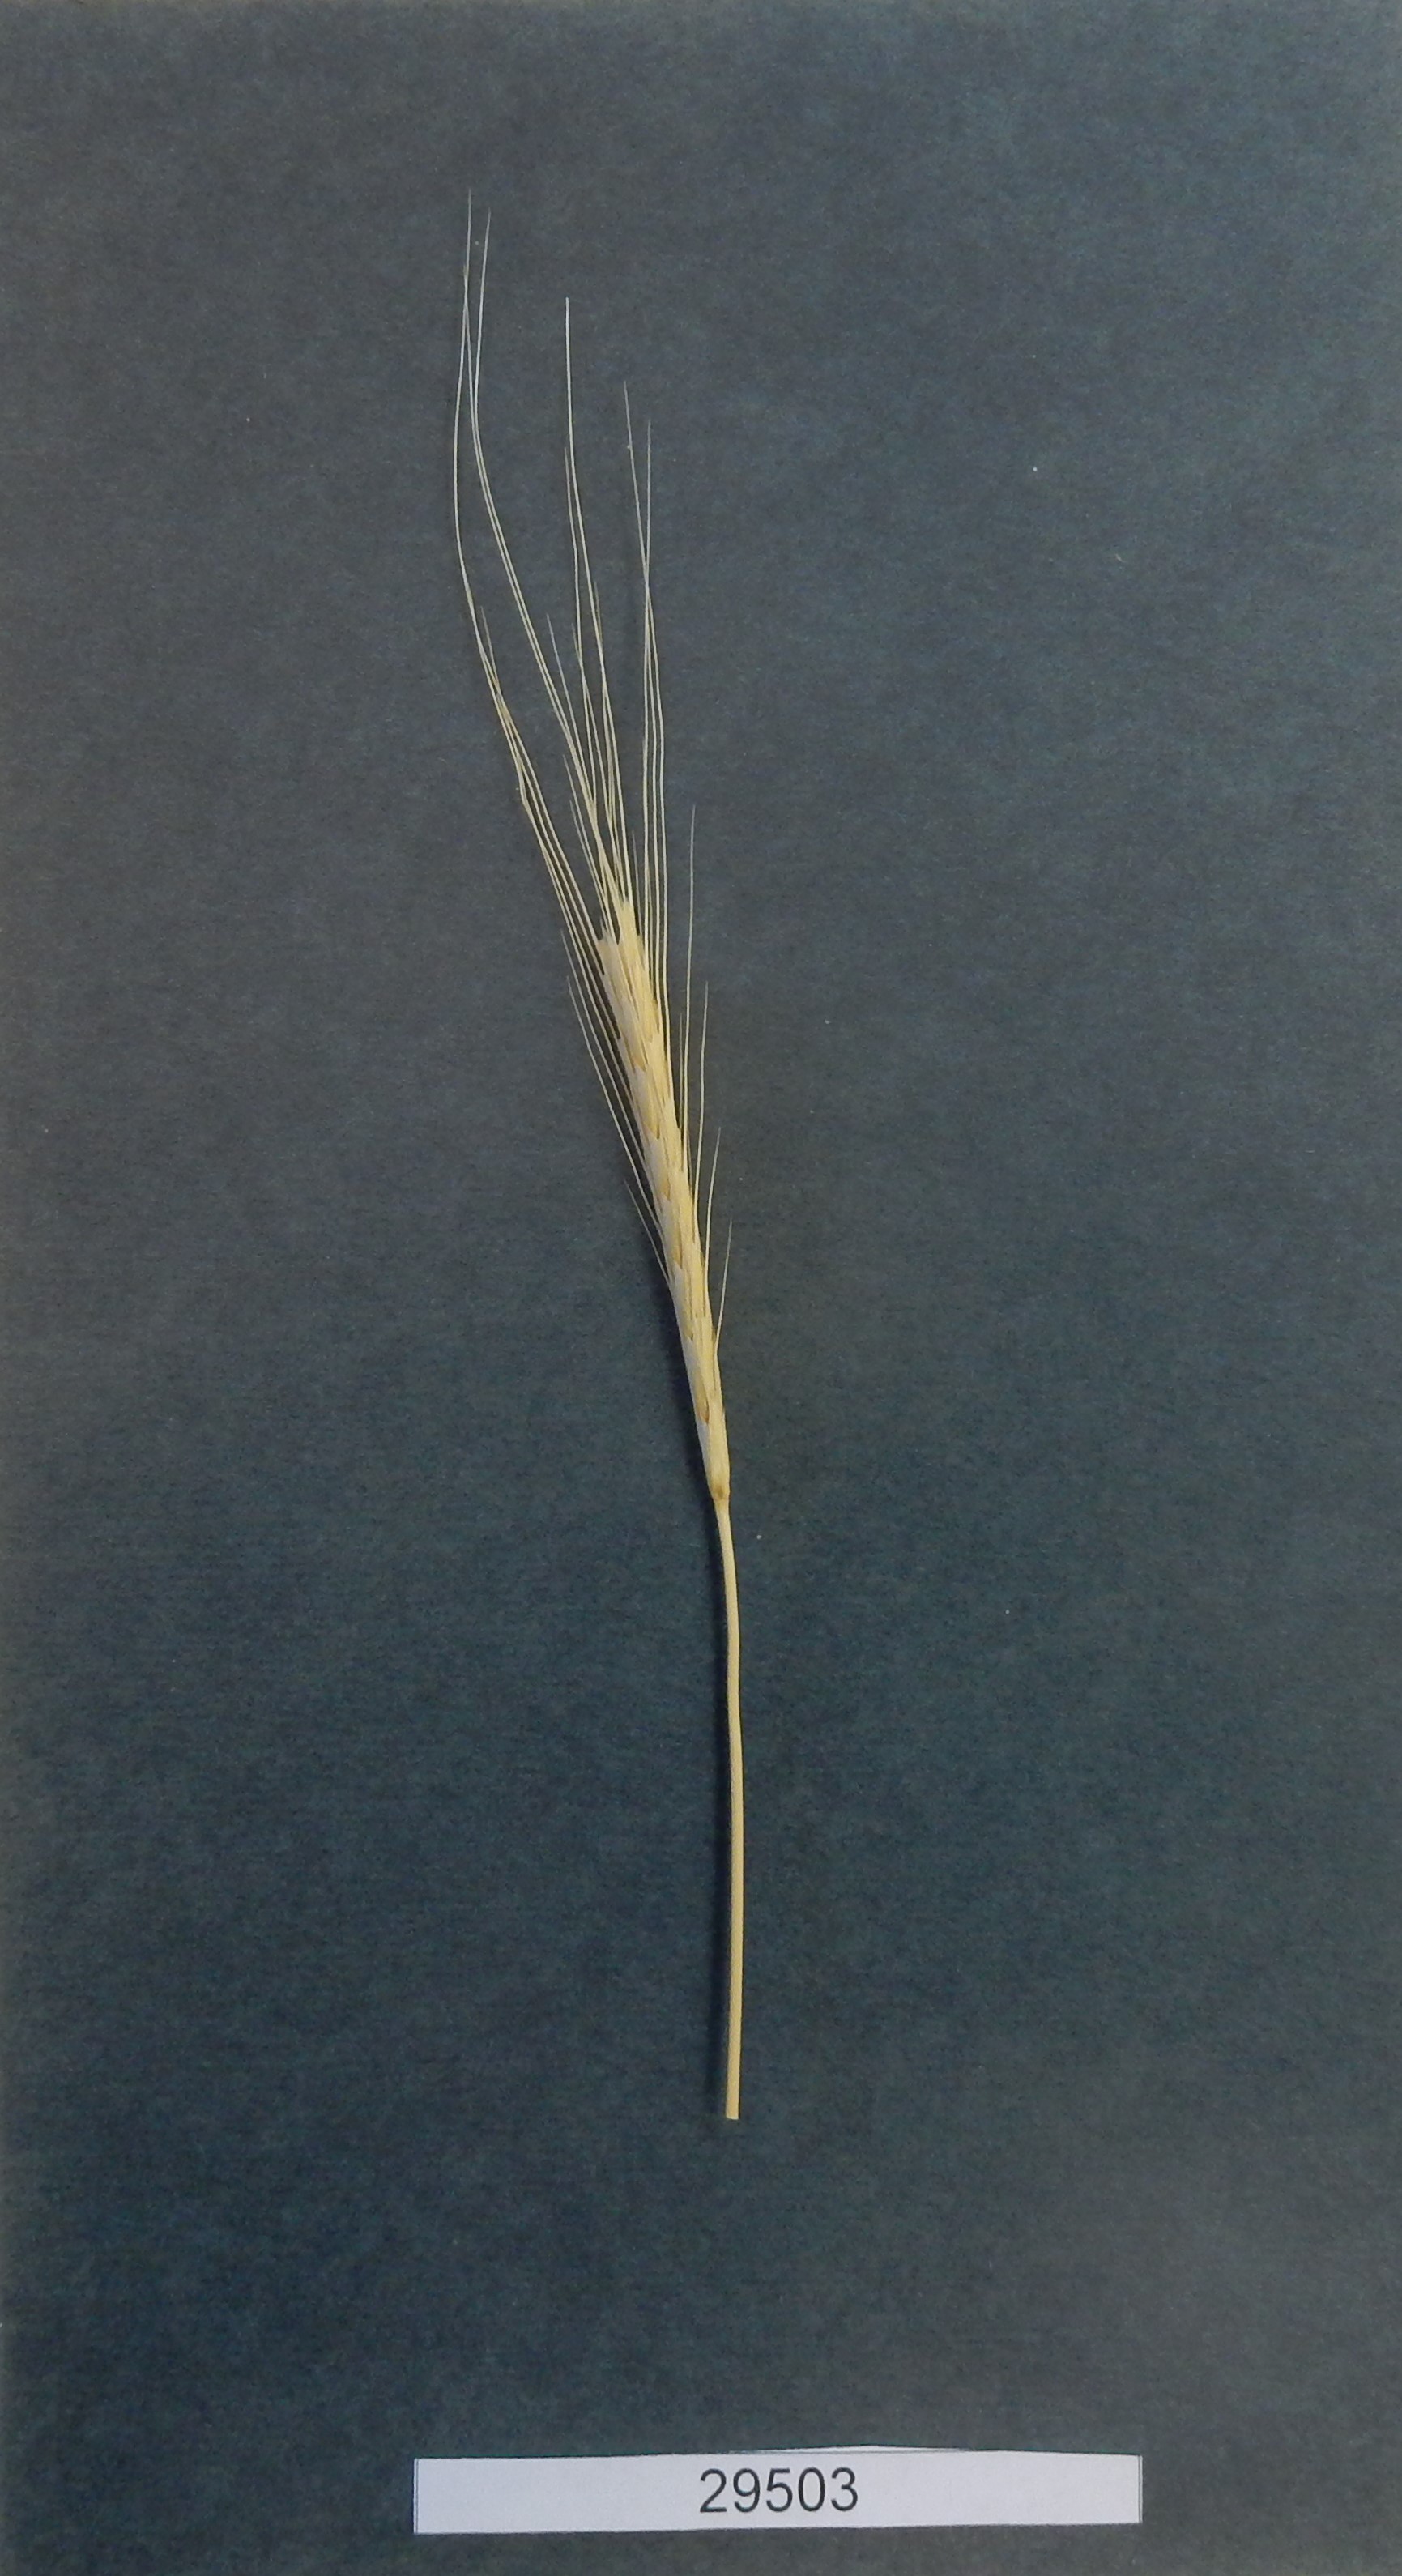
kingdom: Plantae
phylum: Tracheophyta
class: Liliopsida
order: Poales
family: Poaceae
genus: Triticum
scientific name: Triticum urartu
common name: Red wild einkorn
